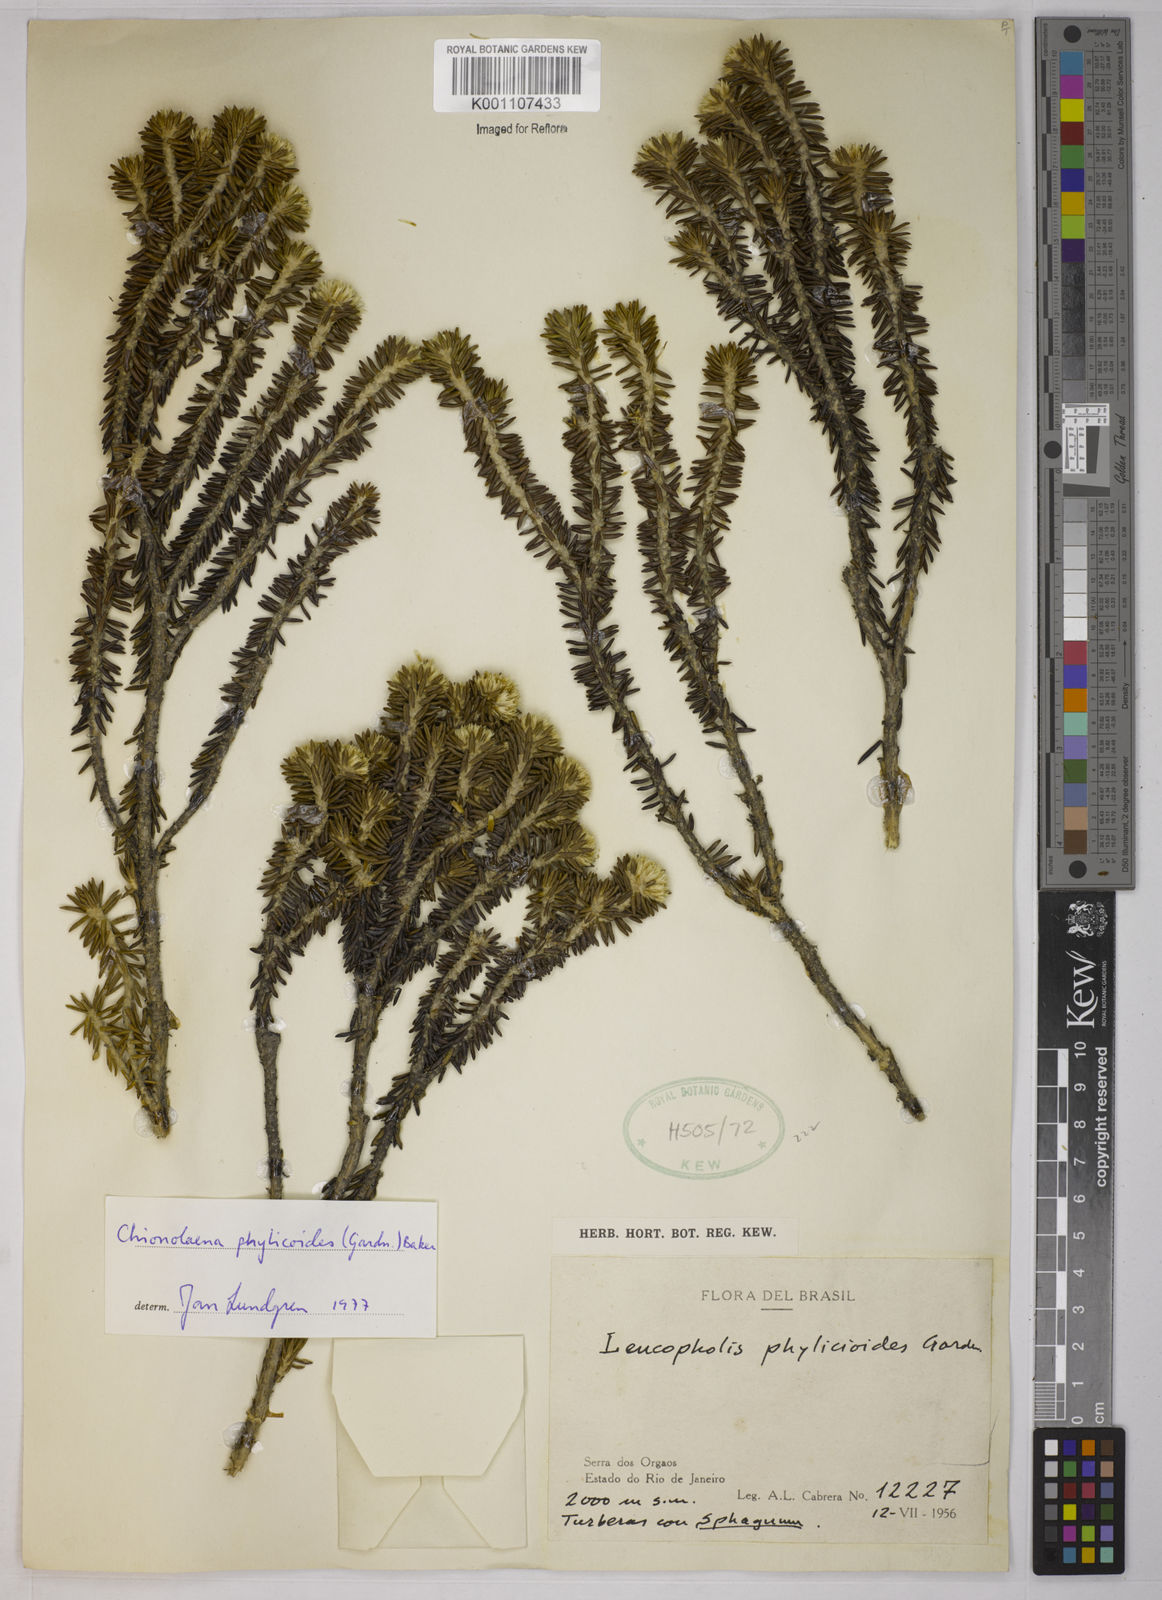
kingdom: Plantae
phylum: Tracheophyta
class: Magnoliopsida
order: Asterales
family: Asteraceae
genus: Chionolaena
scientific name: Chionolaena phylicoides
